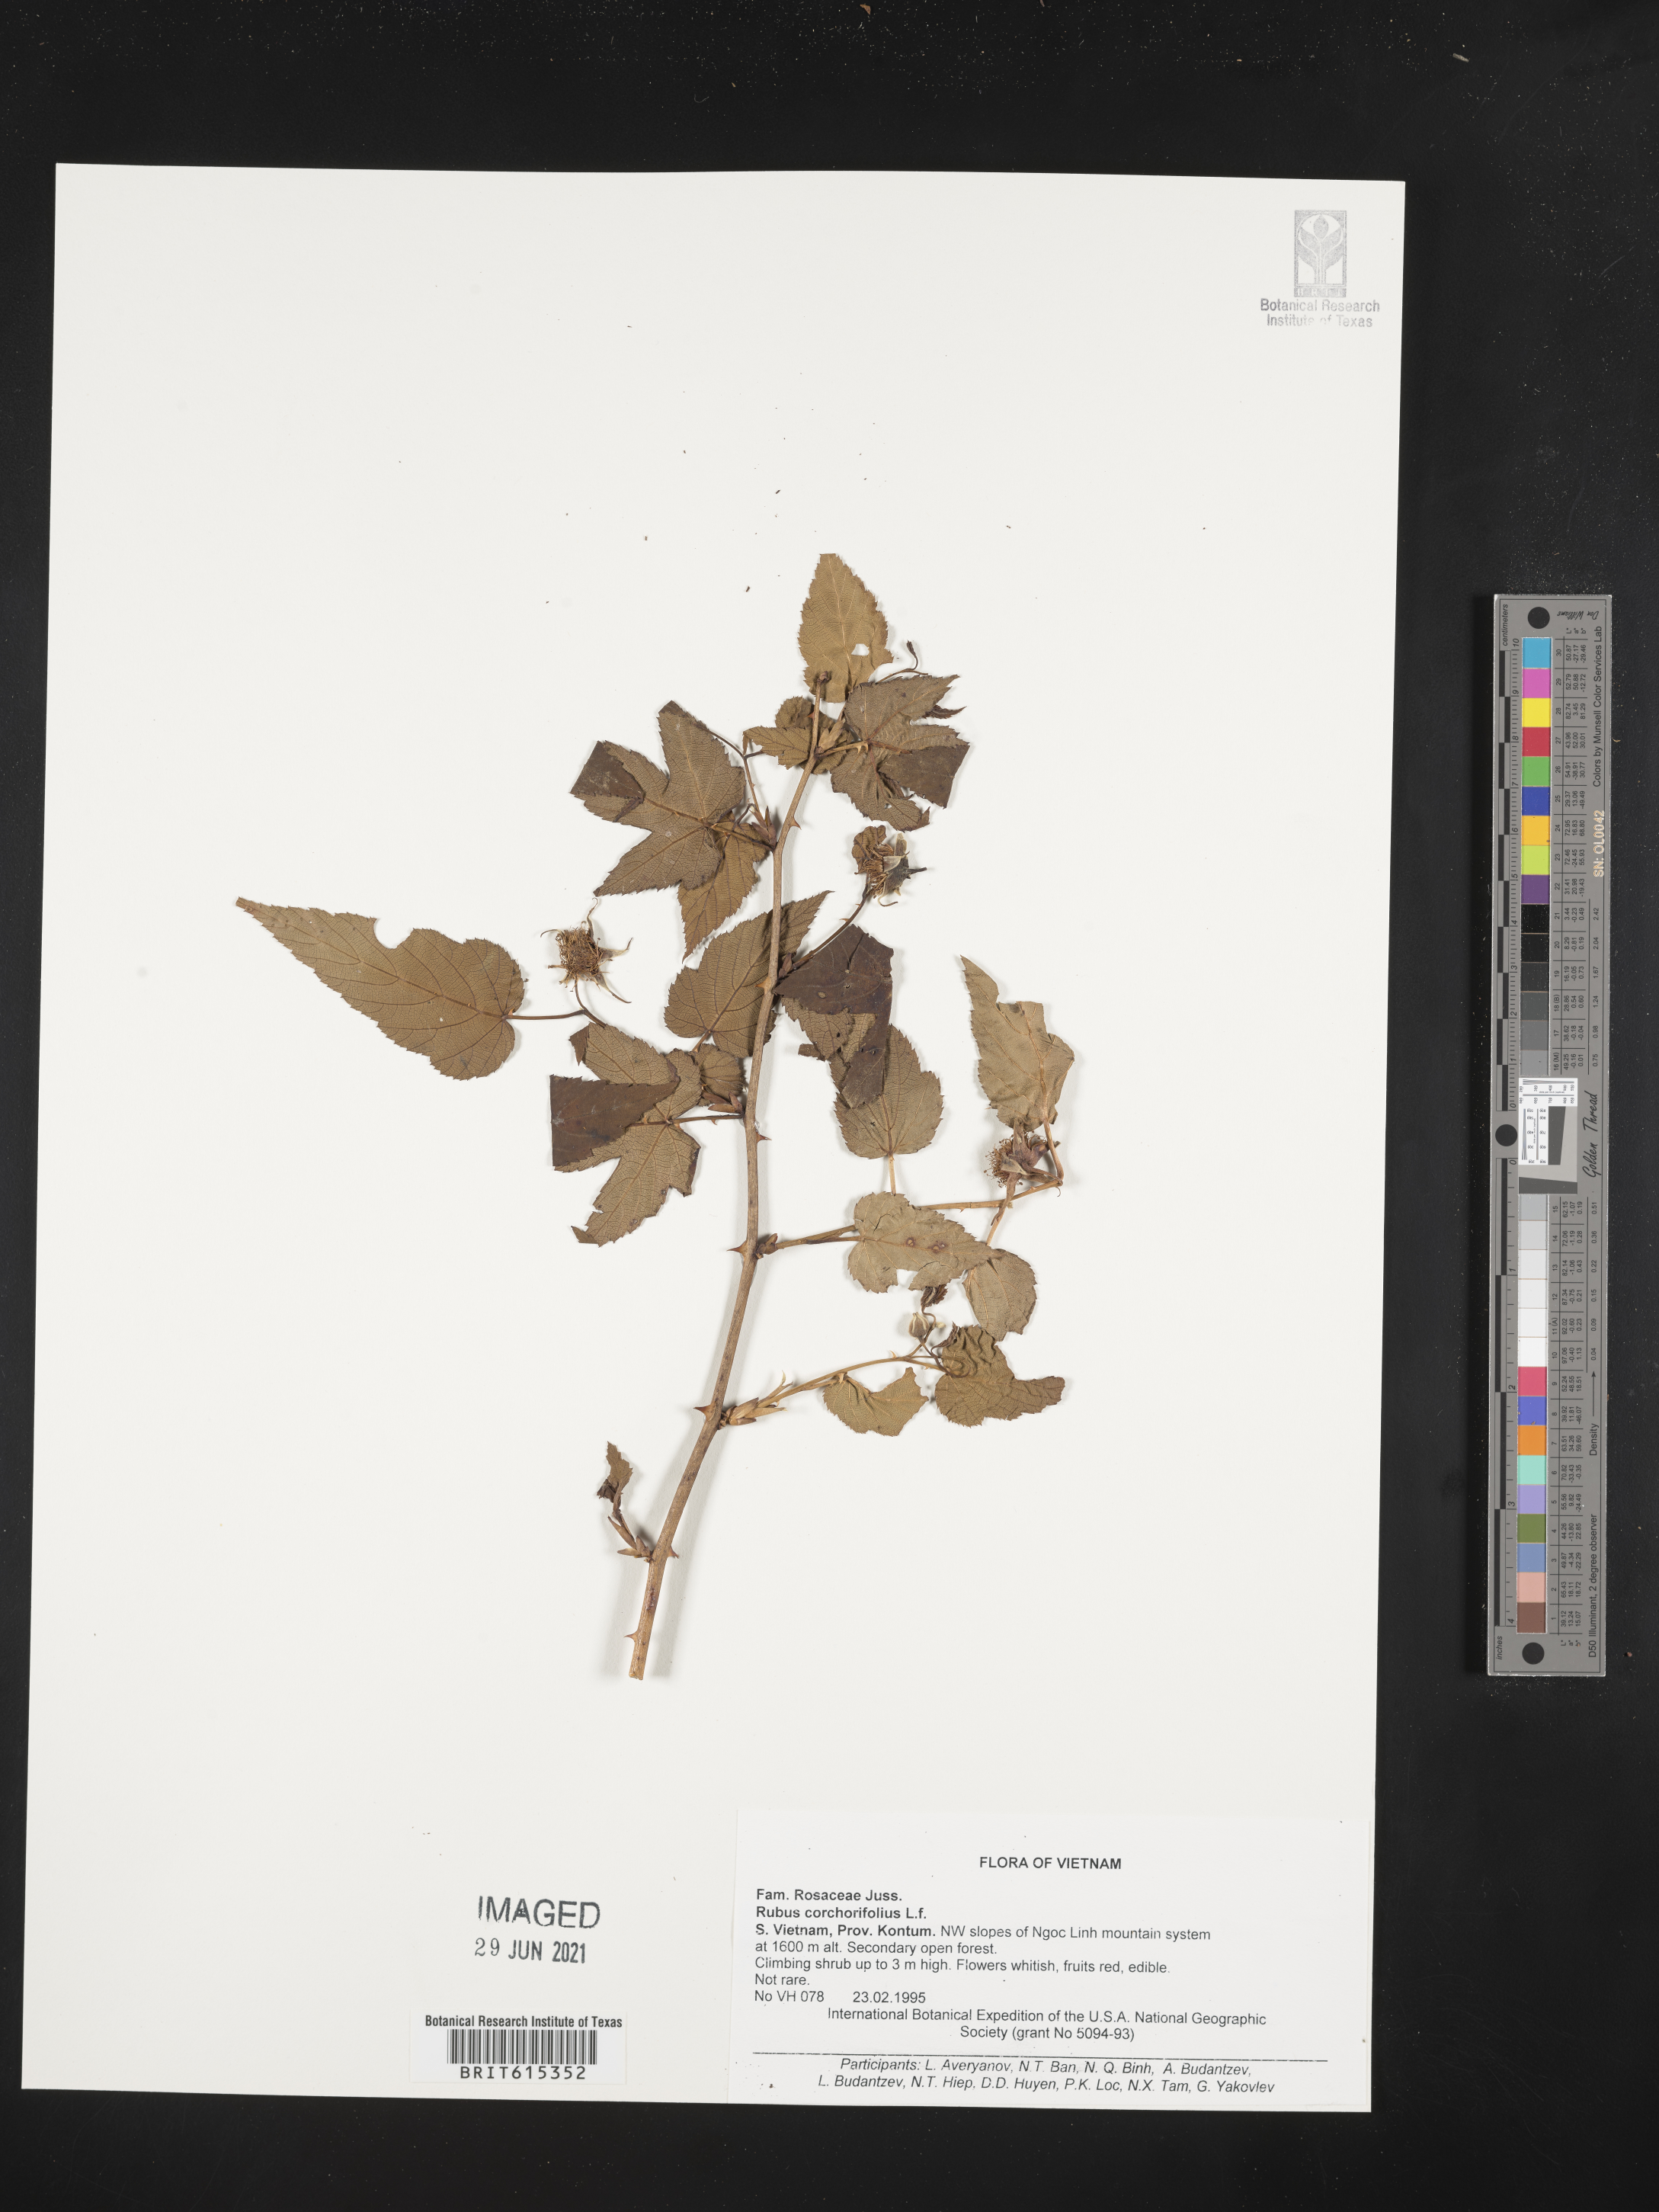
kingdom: Plantae
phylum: Tracheophyta
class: Magnoliopsida
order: Rosales
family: Rosaceae
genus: Rubus
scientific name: Rubus corchorifolius
